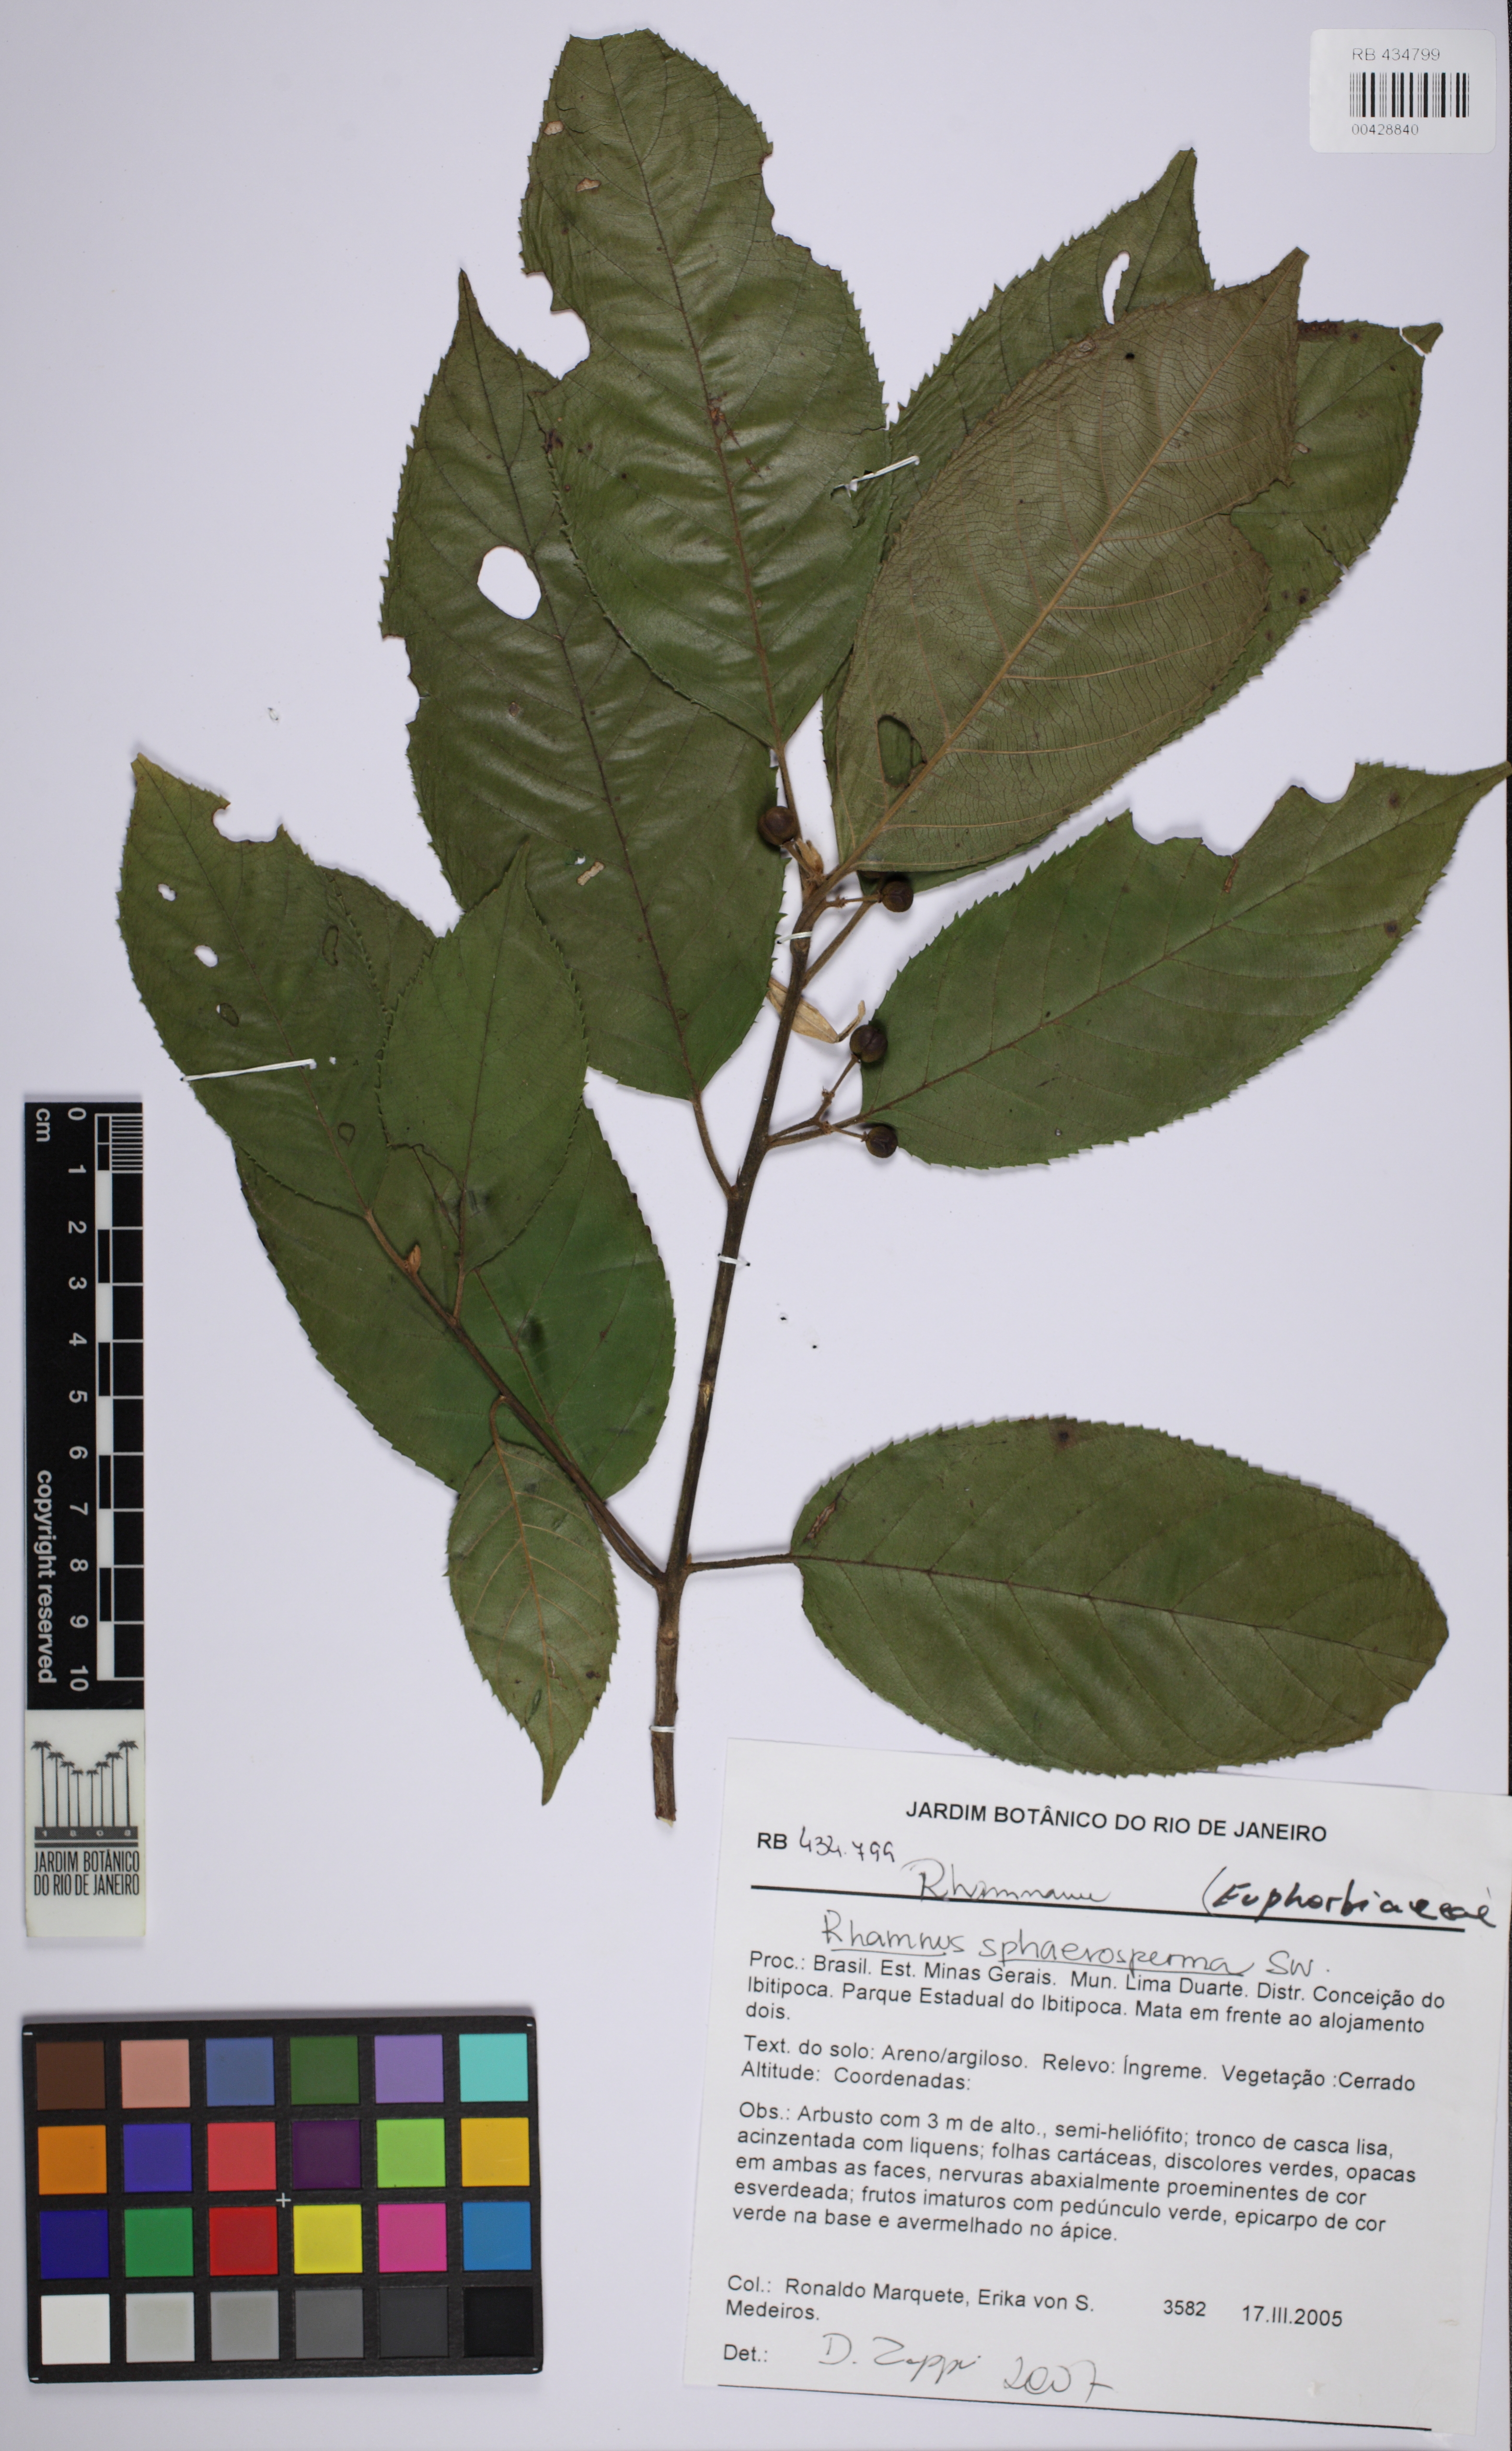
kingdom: Plantae
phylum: Tracheophyta
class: Magnoliopsida
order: Rosales
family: Rhamnaceae
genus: Frangula
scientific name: Frangula sphaerosperma
